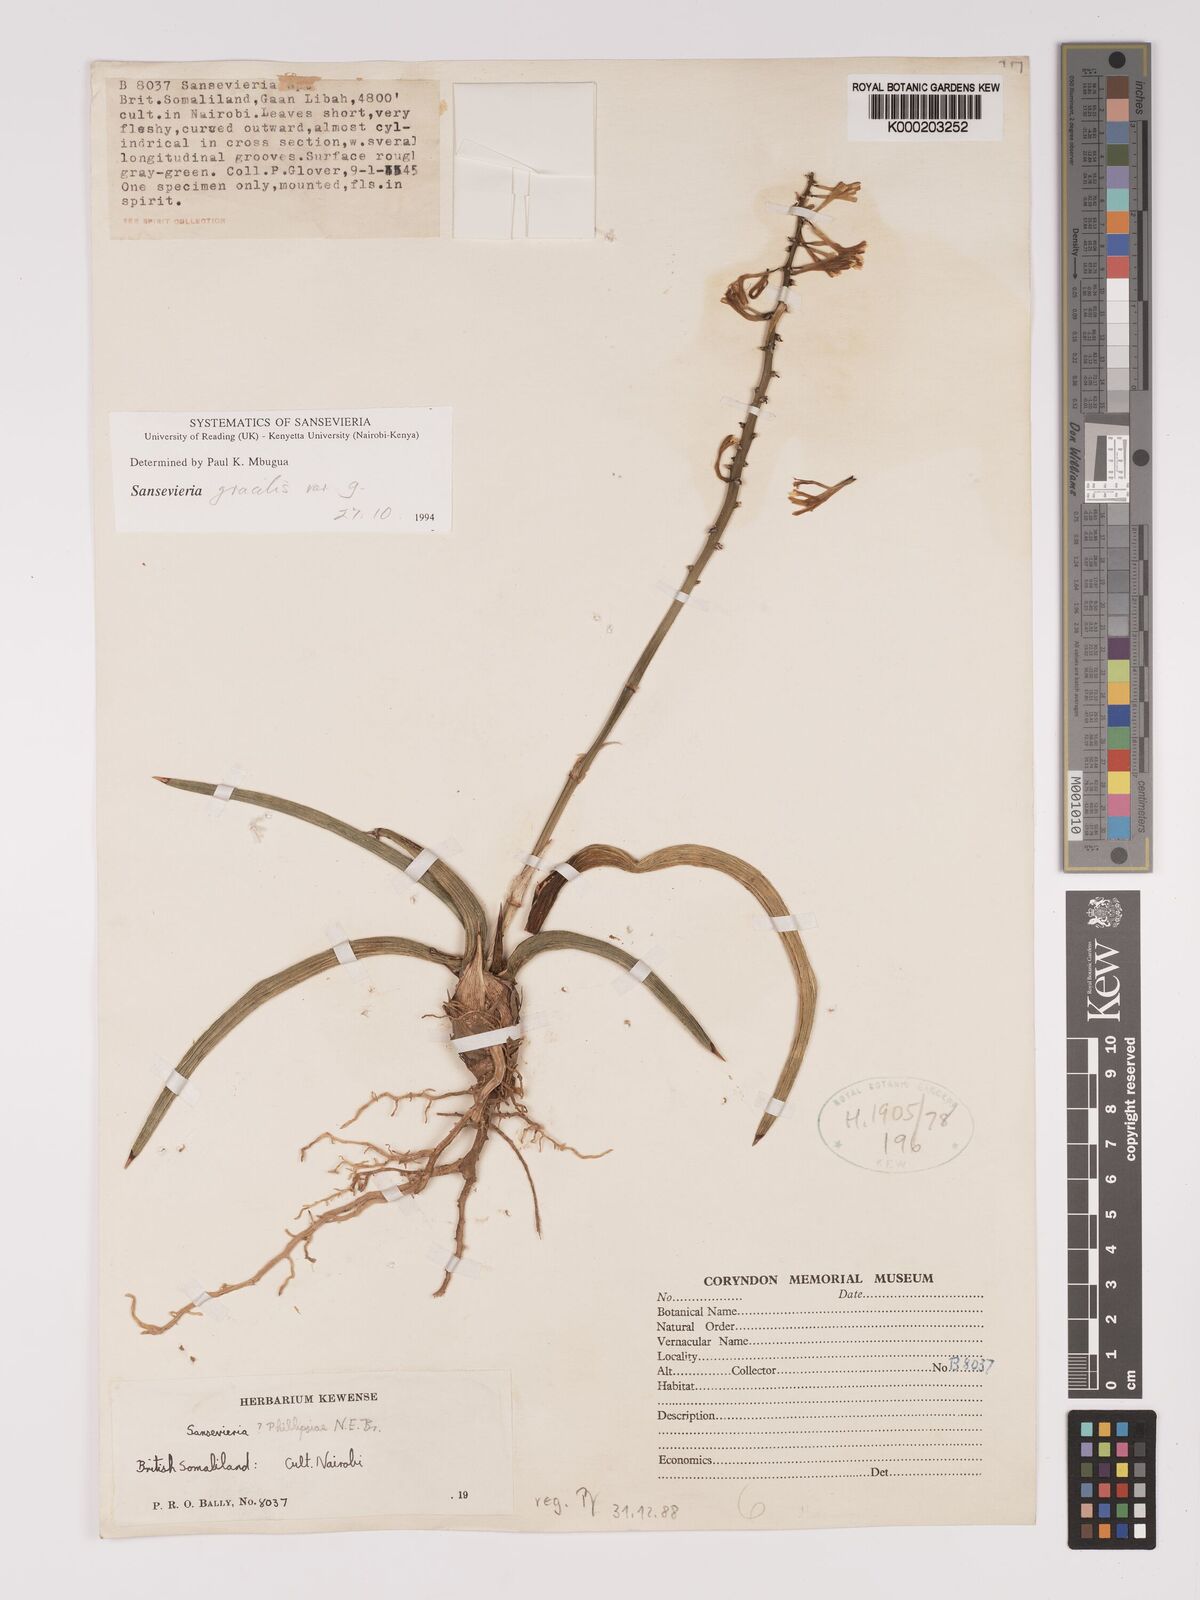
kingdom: Plantae
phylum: Tracheophyta
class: Liliopsida
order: Asparagales
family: Asparagaceae
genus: Dracaena
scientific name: Dracaena phillipsiae
